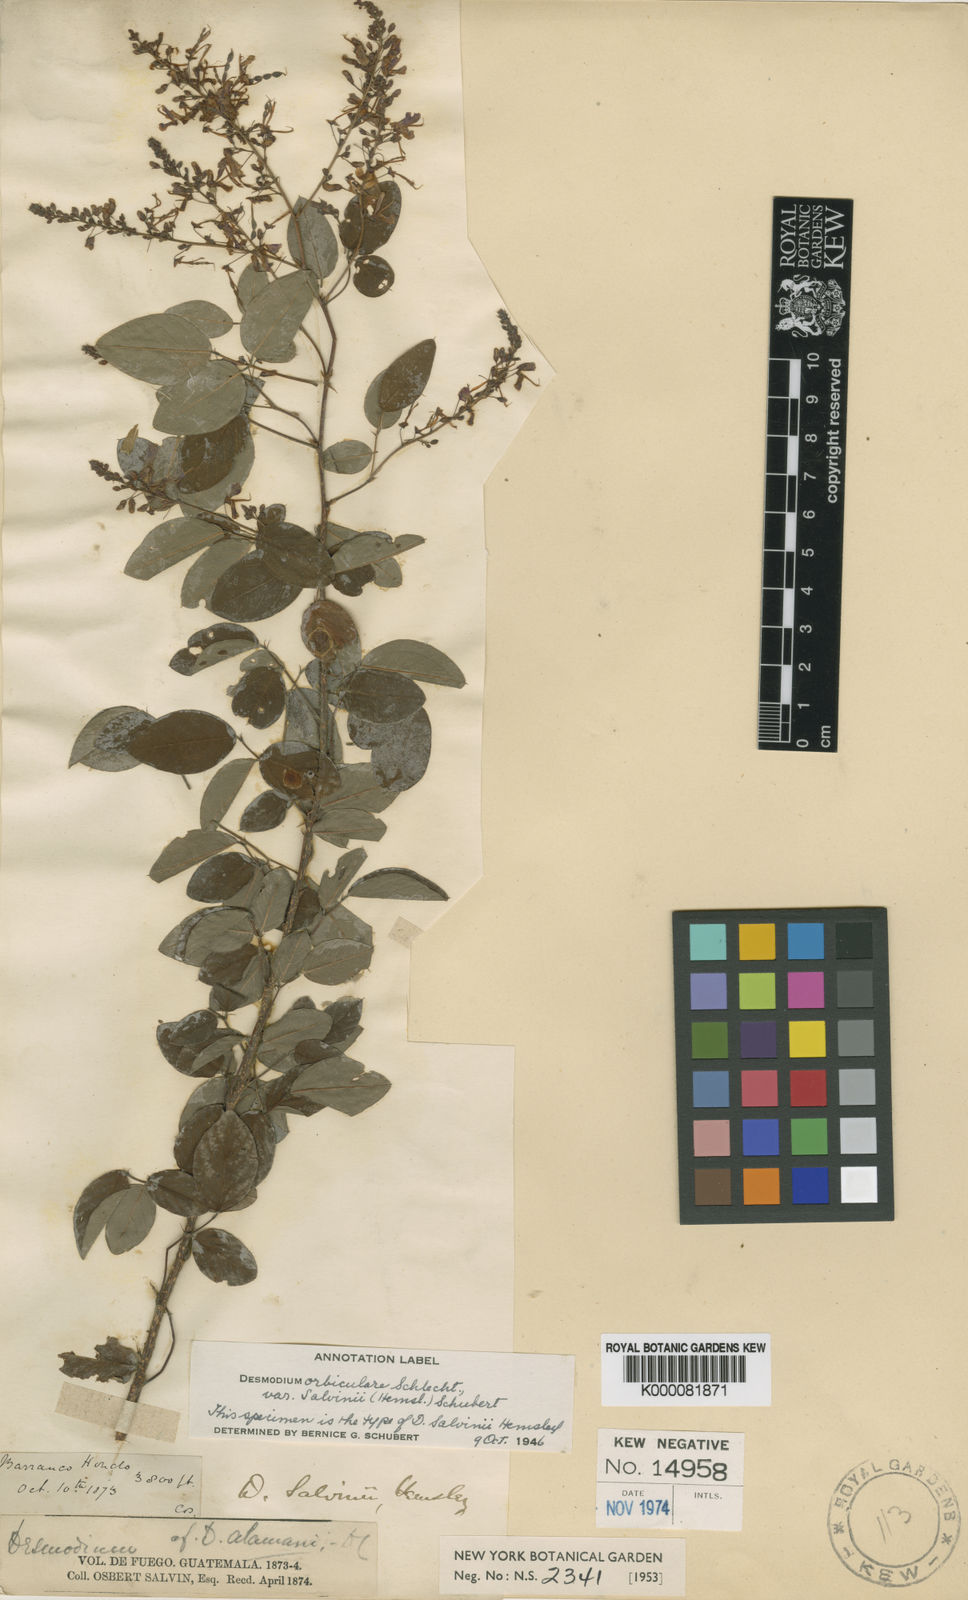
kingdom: Plantae
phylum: Tracheophyta
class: Magnoliopsida
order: Fabales
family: Fabaceae
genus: Desmodium
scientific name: Desmodium orbiculare
